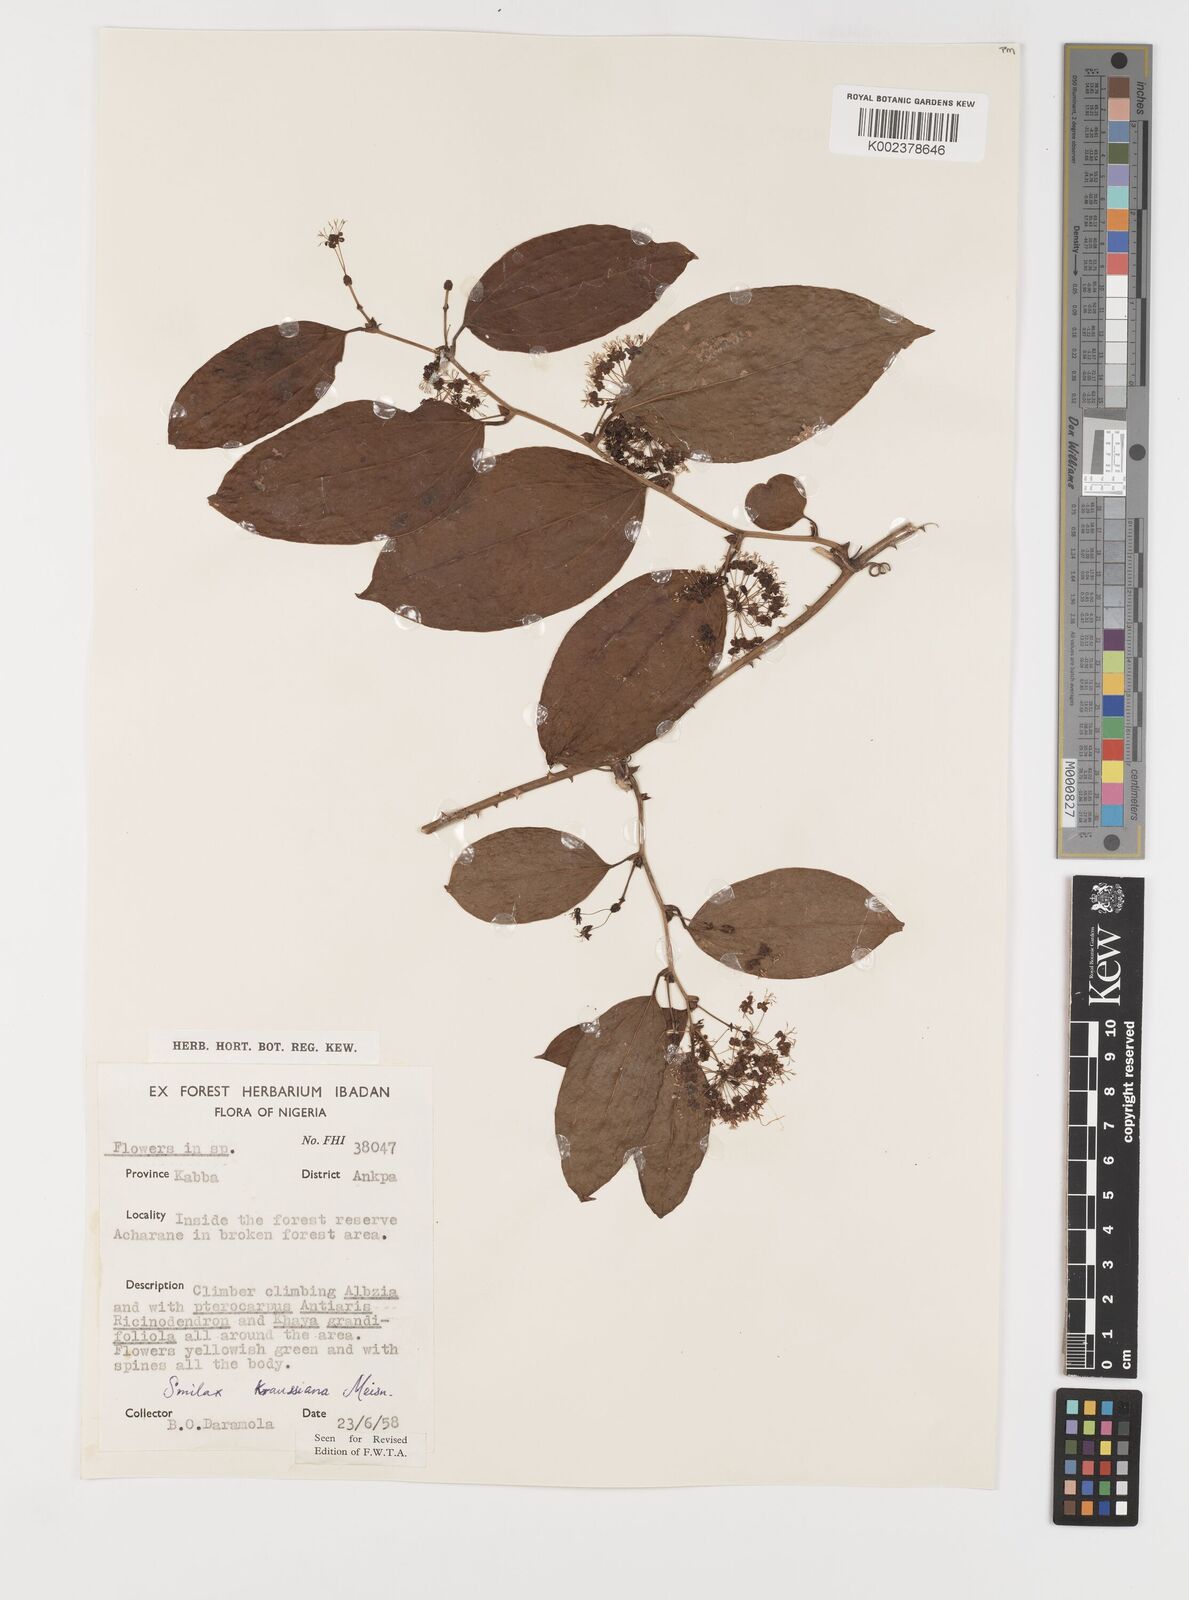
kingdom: Plantae
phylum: Tracheophyta
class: Liliopsida
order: Liliales
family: Smilacaceae
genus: Smilax
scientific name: Smilax anceps
